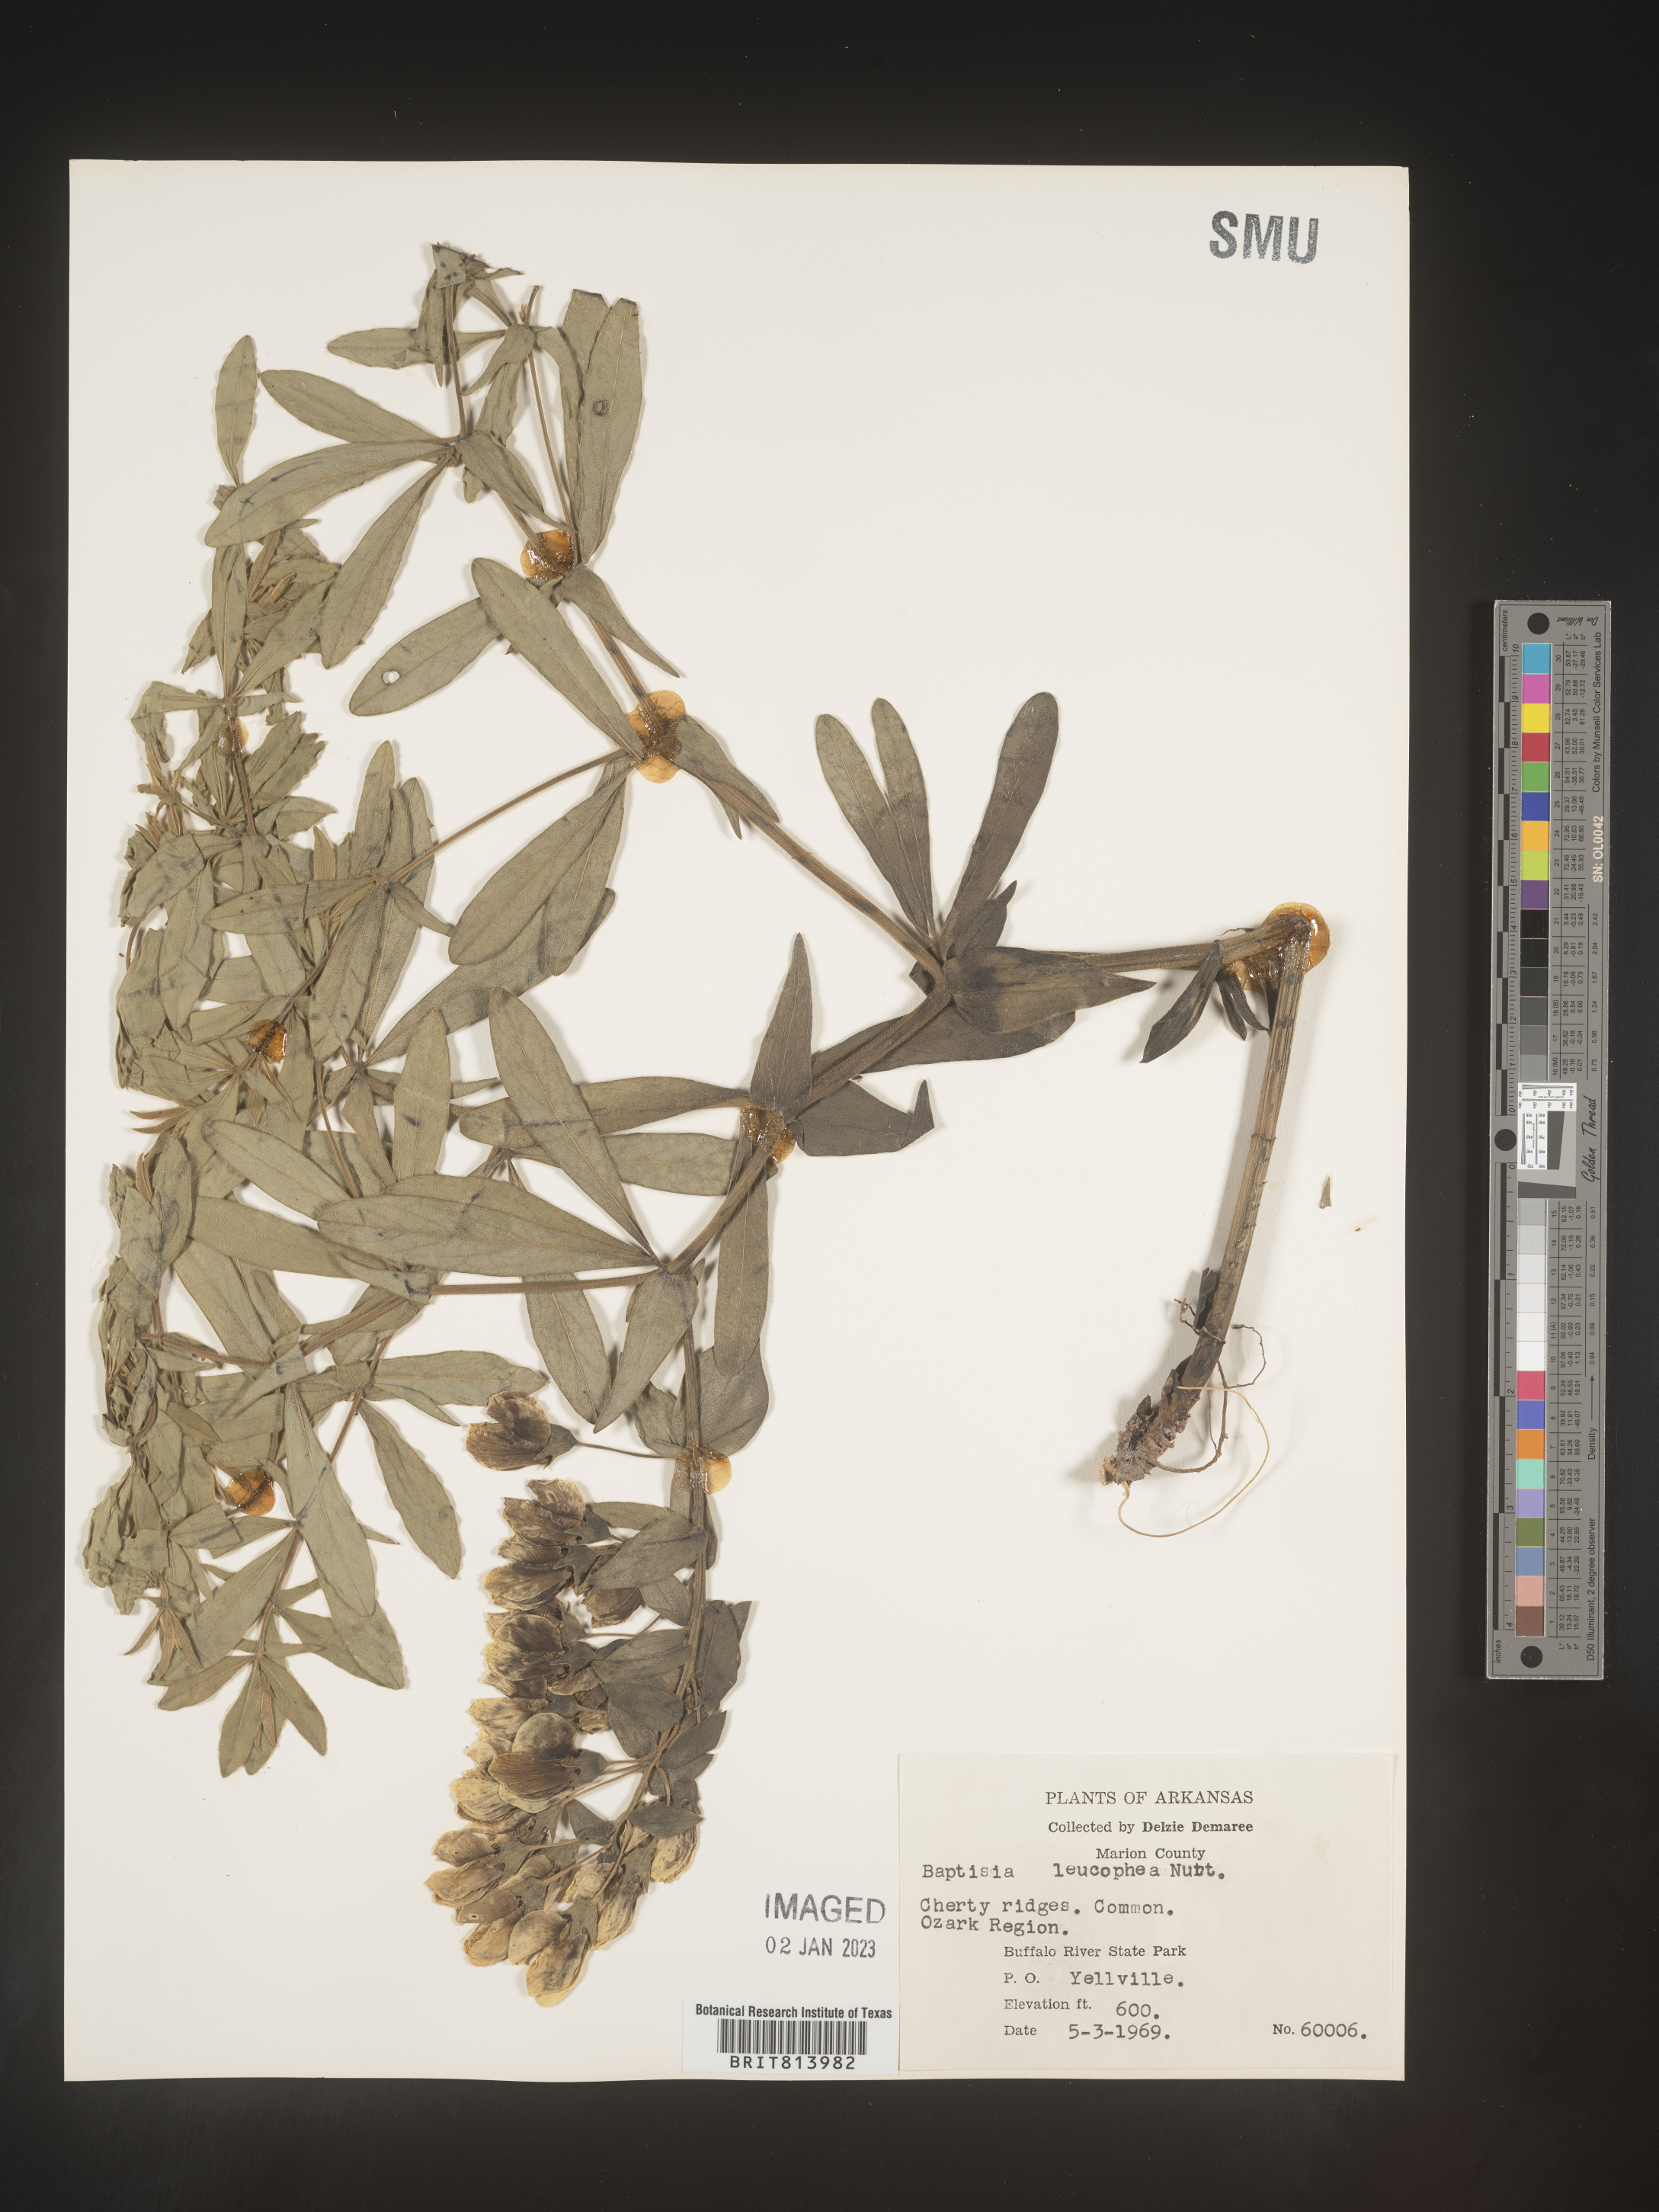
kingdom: Plantae
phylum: Tracheophyta
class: Magnoliopsida
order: Fabales
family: Fabaceae
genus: Baptisia
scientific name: Baptisia bracteata
